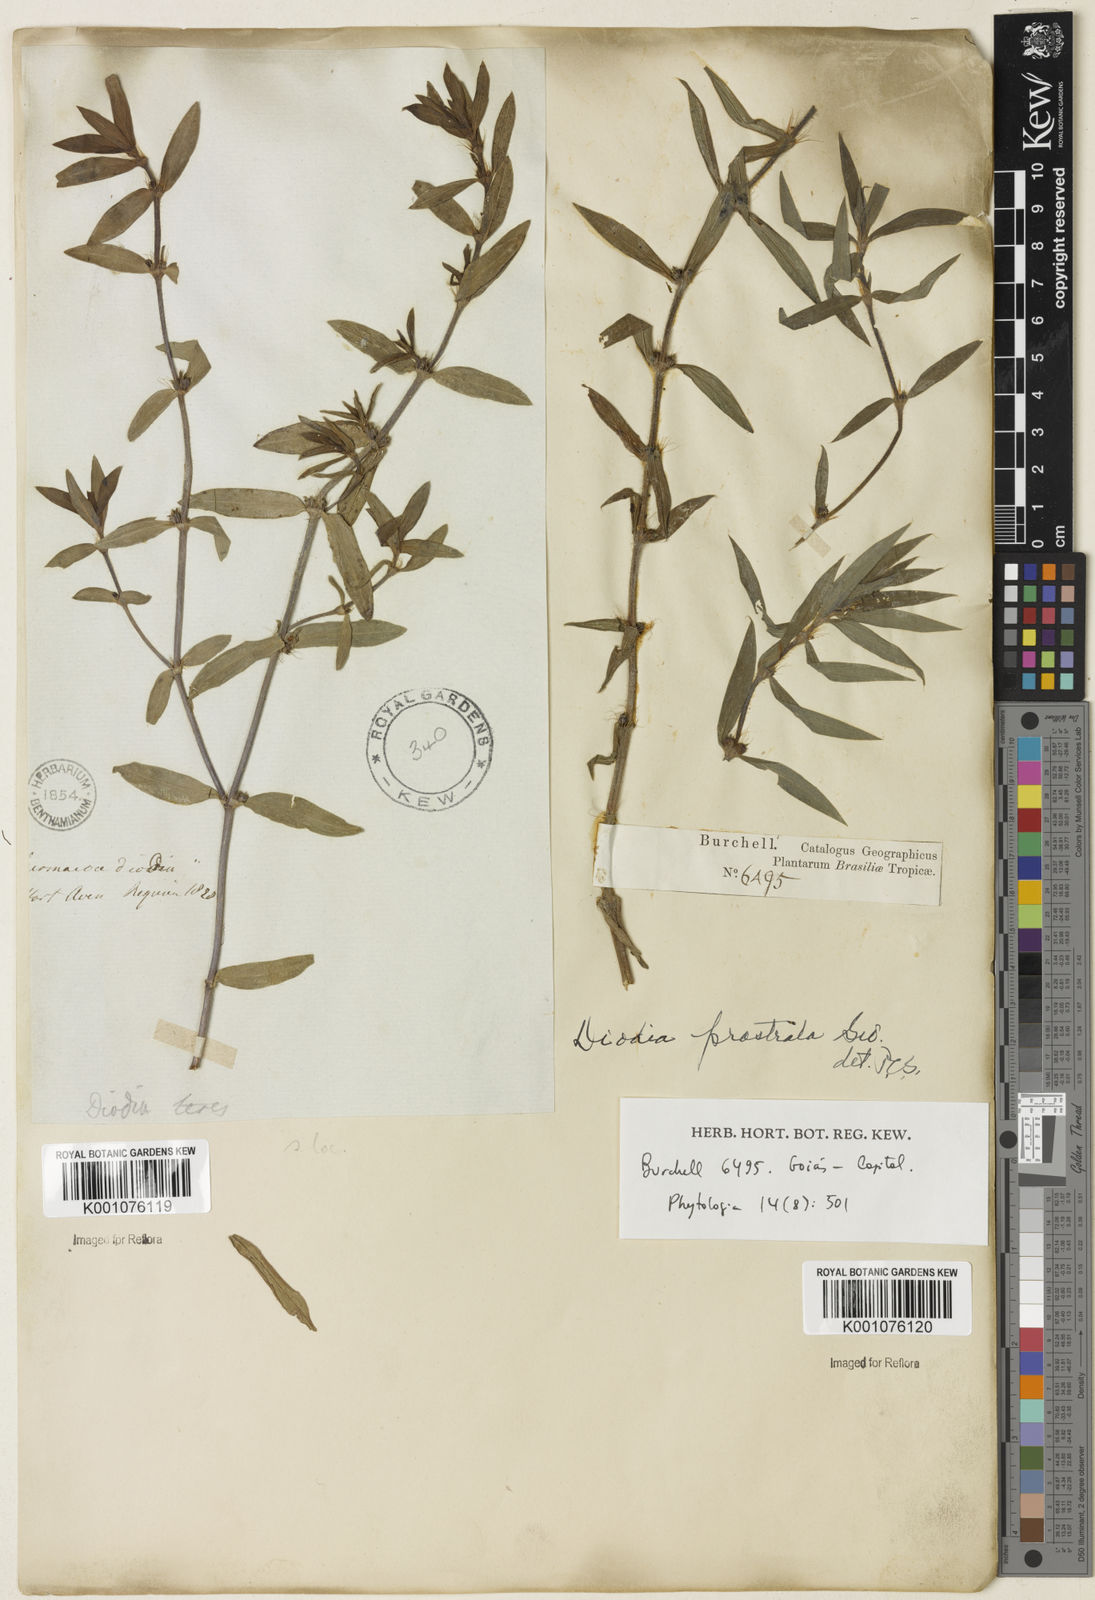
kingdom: Plantae
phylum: Tracheophyta
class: Magnoliopsida
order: Gentianales
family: Rubiaceae
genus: Hexasepalum
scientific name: Hexasepalum teres
